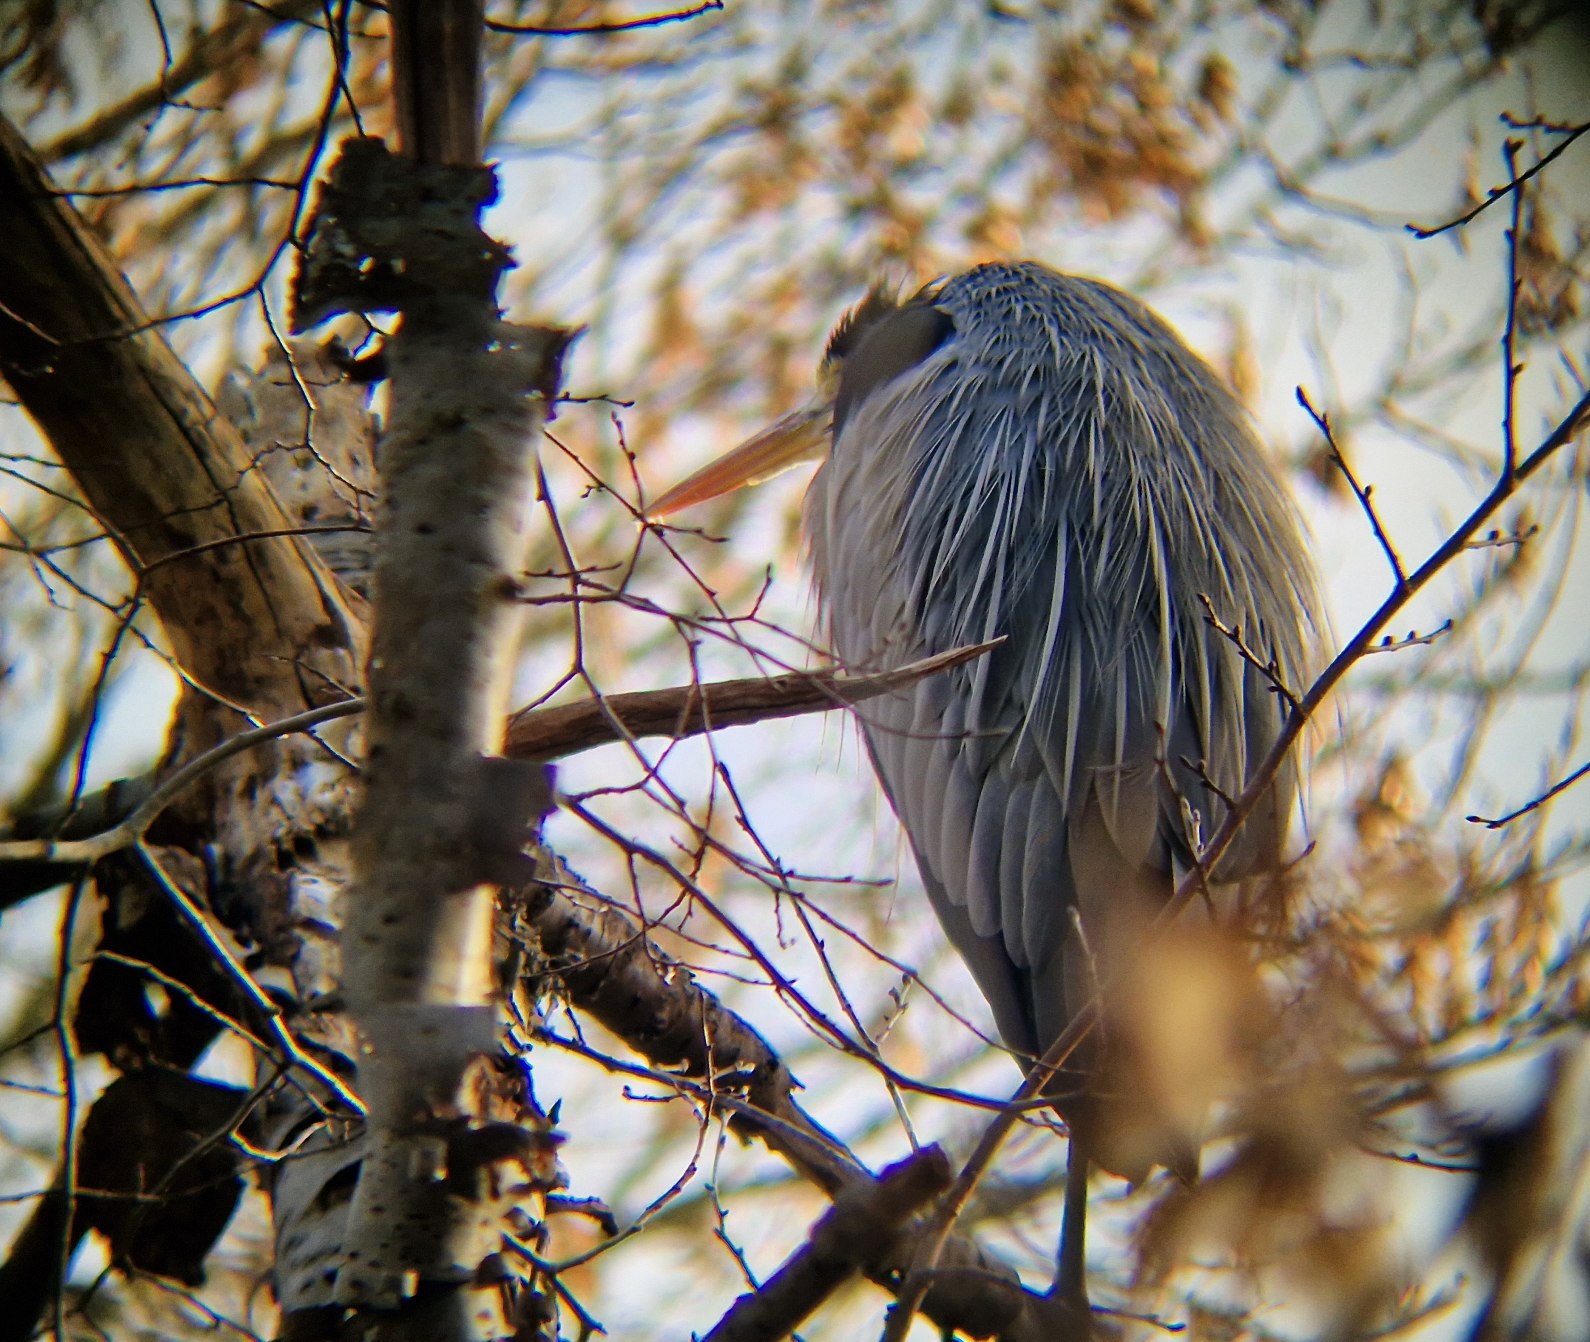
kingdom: Animalia
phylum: Chordata
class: Aves
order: Pelecaniformes
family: Ardeidae
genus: Ardea
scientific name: Ardea cinerea
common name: Fiskehejre
